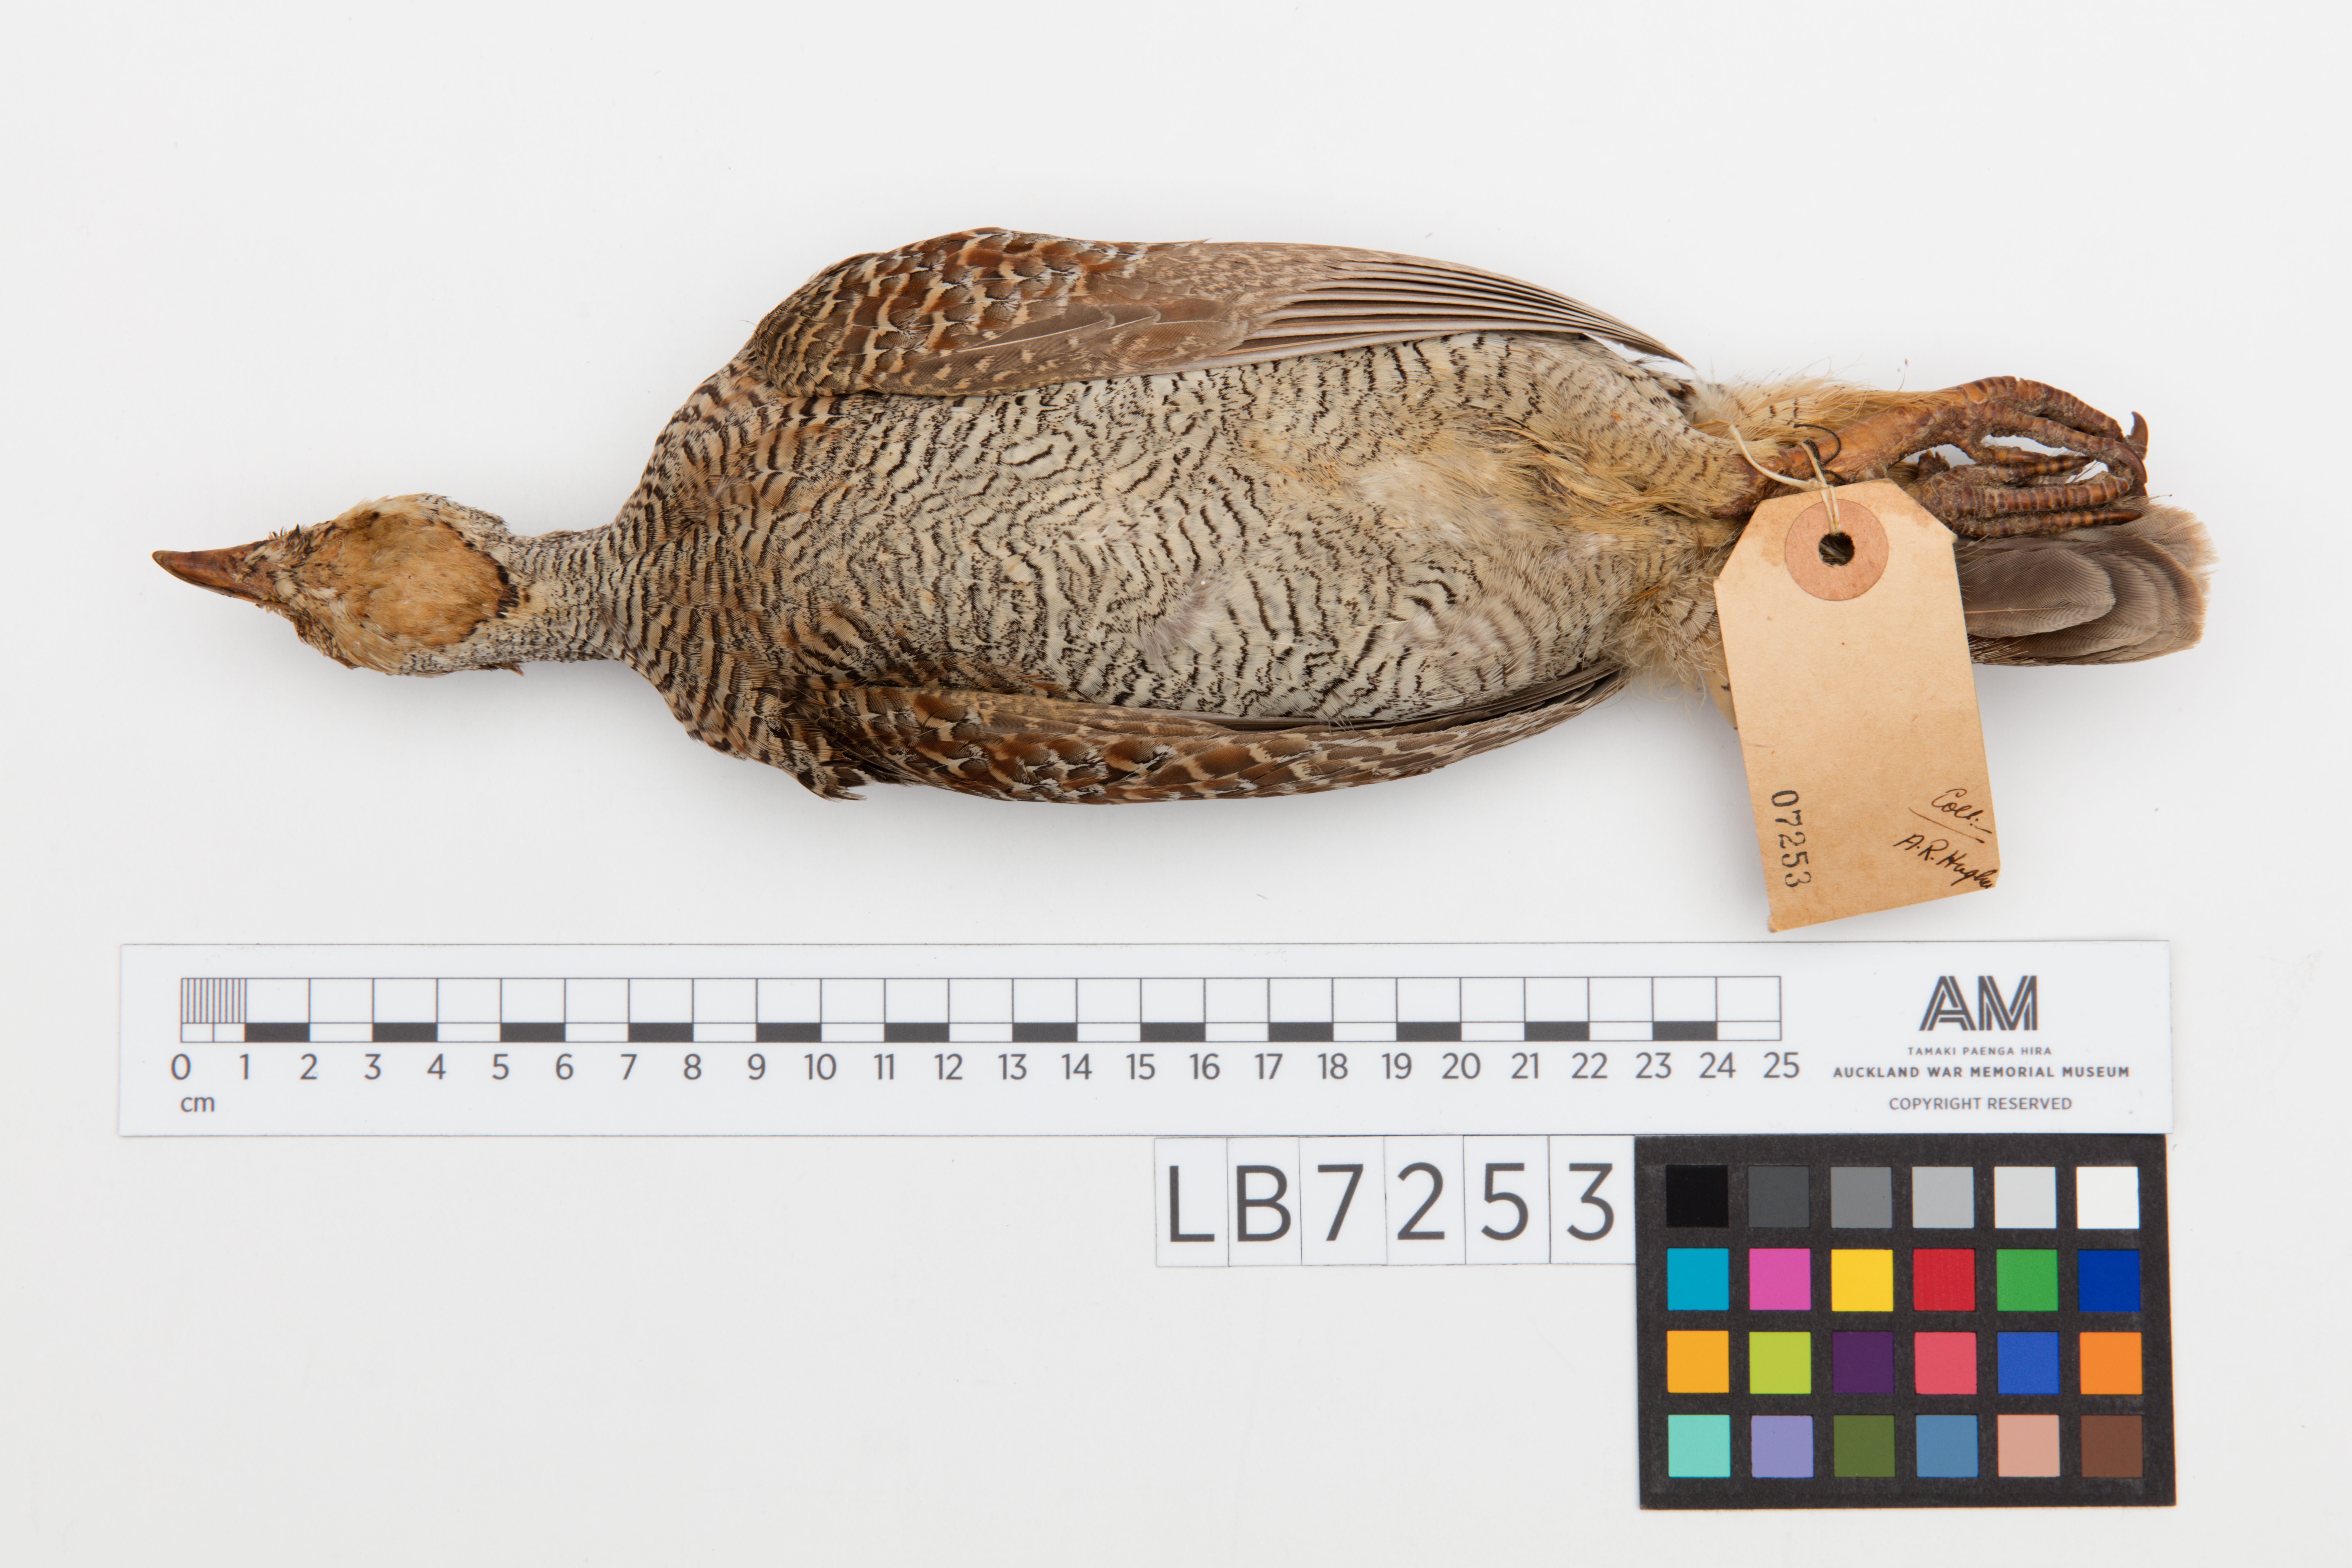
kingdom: Animalia
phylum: Chordata
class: Aves
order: Galliformes
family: Phasianidae
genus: Ortygornis
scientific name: Ortygornis pondicerianus
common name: Grey francolin
